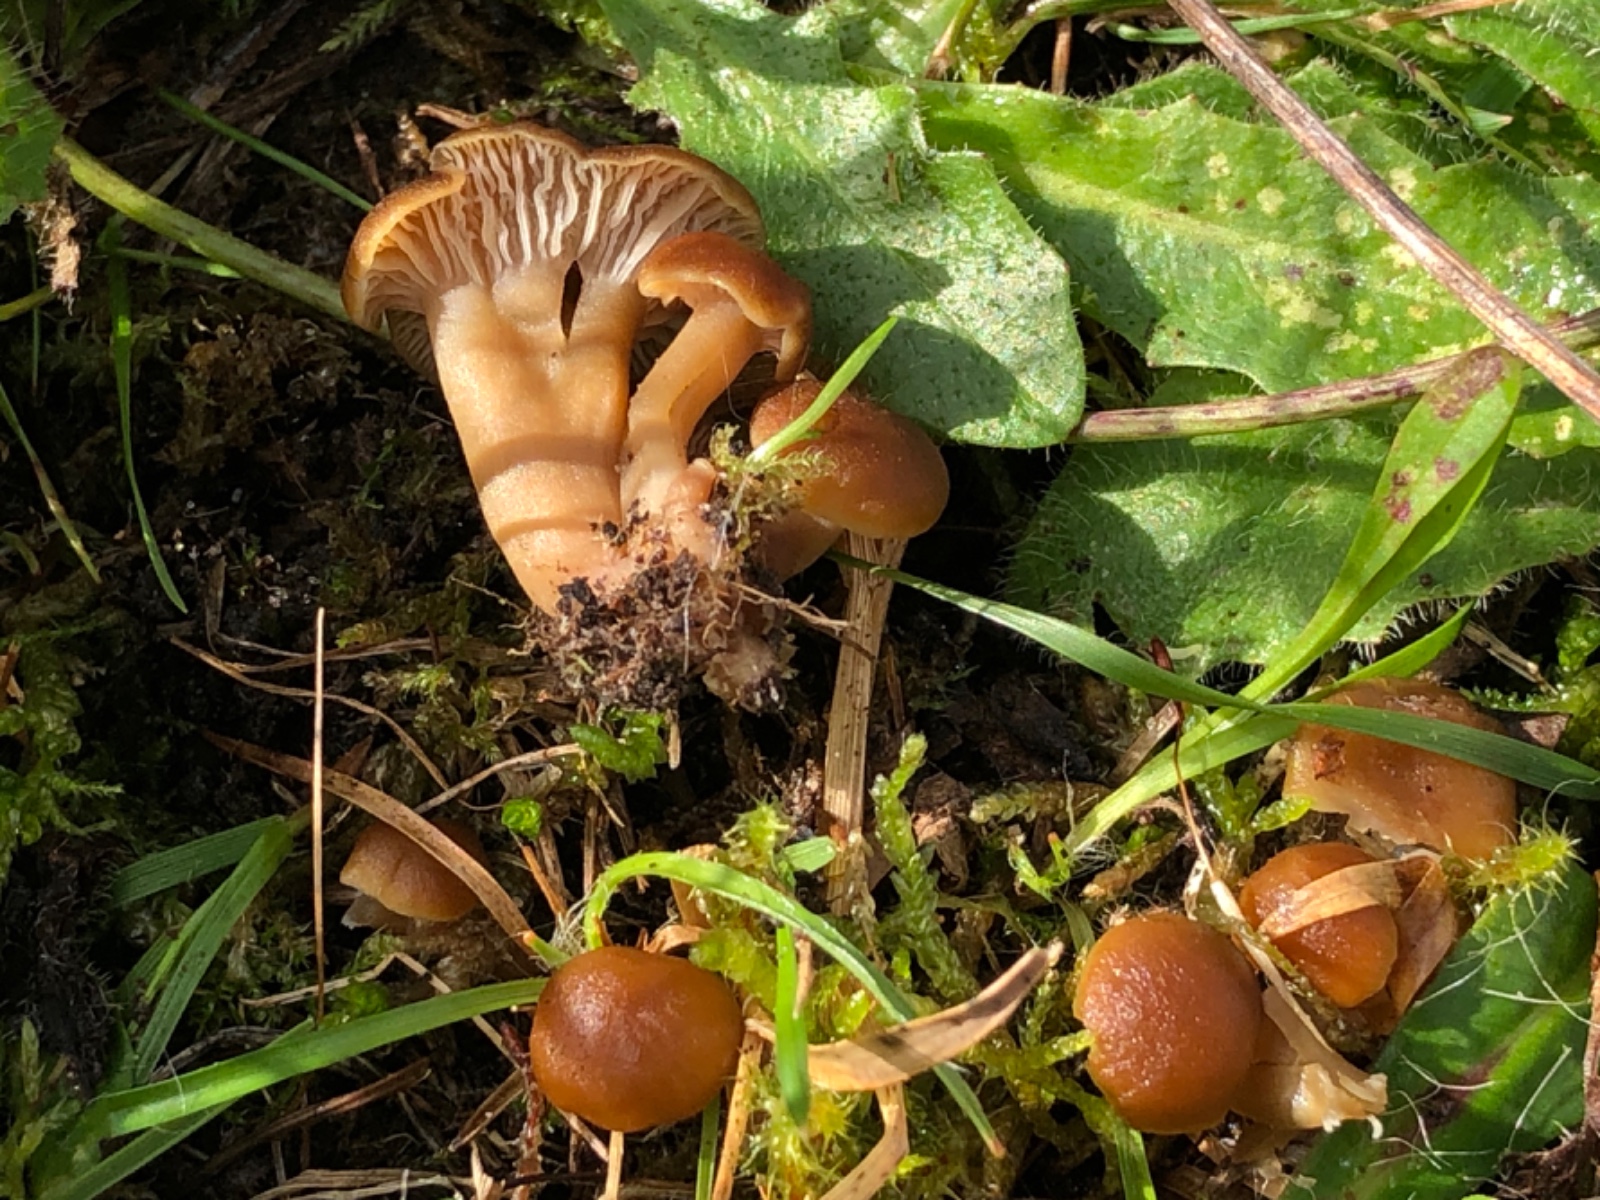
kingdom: Fungi
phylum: Basidiomycota
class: Agaricomycetes
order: Agaricales
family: Clavariaceae
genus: Camarophyllopsis
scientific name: Camarophyllopsis schulzeri
